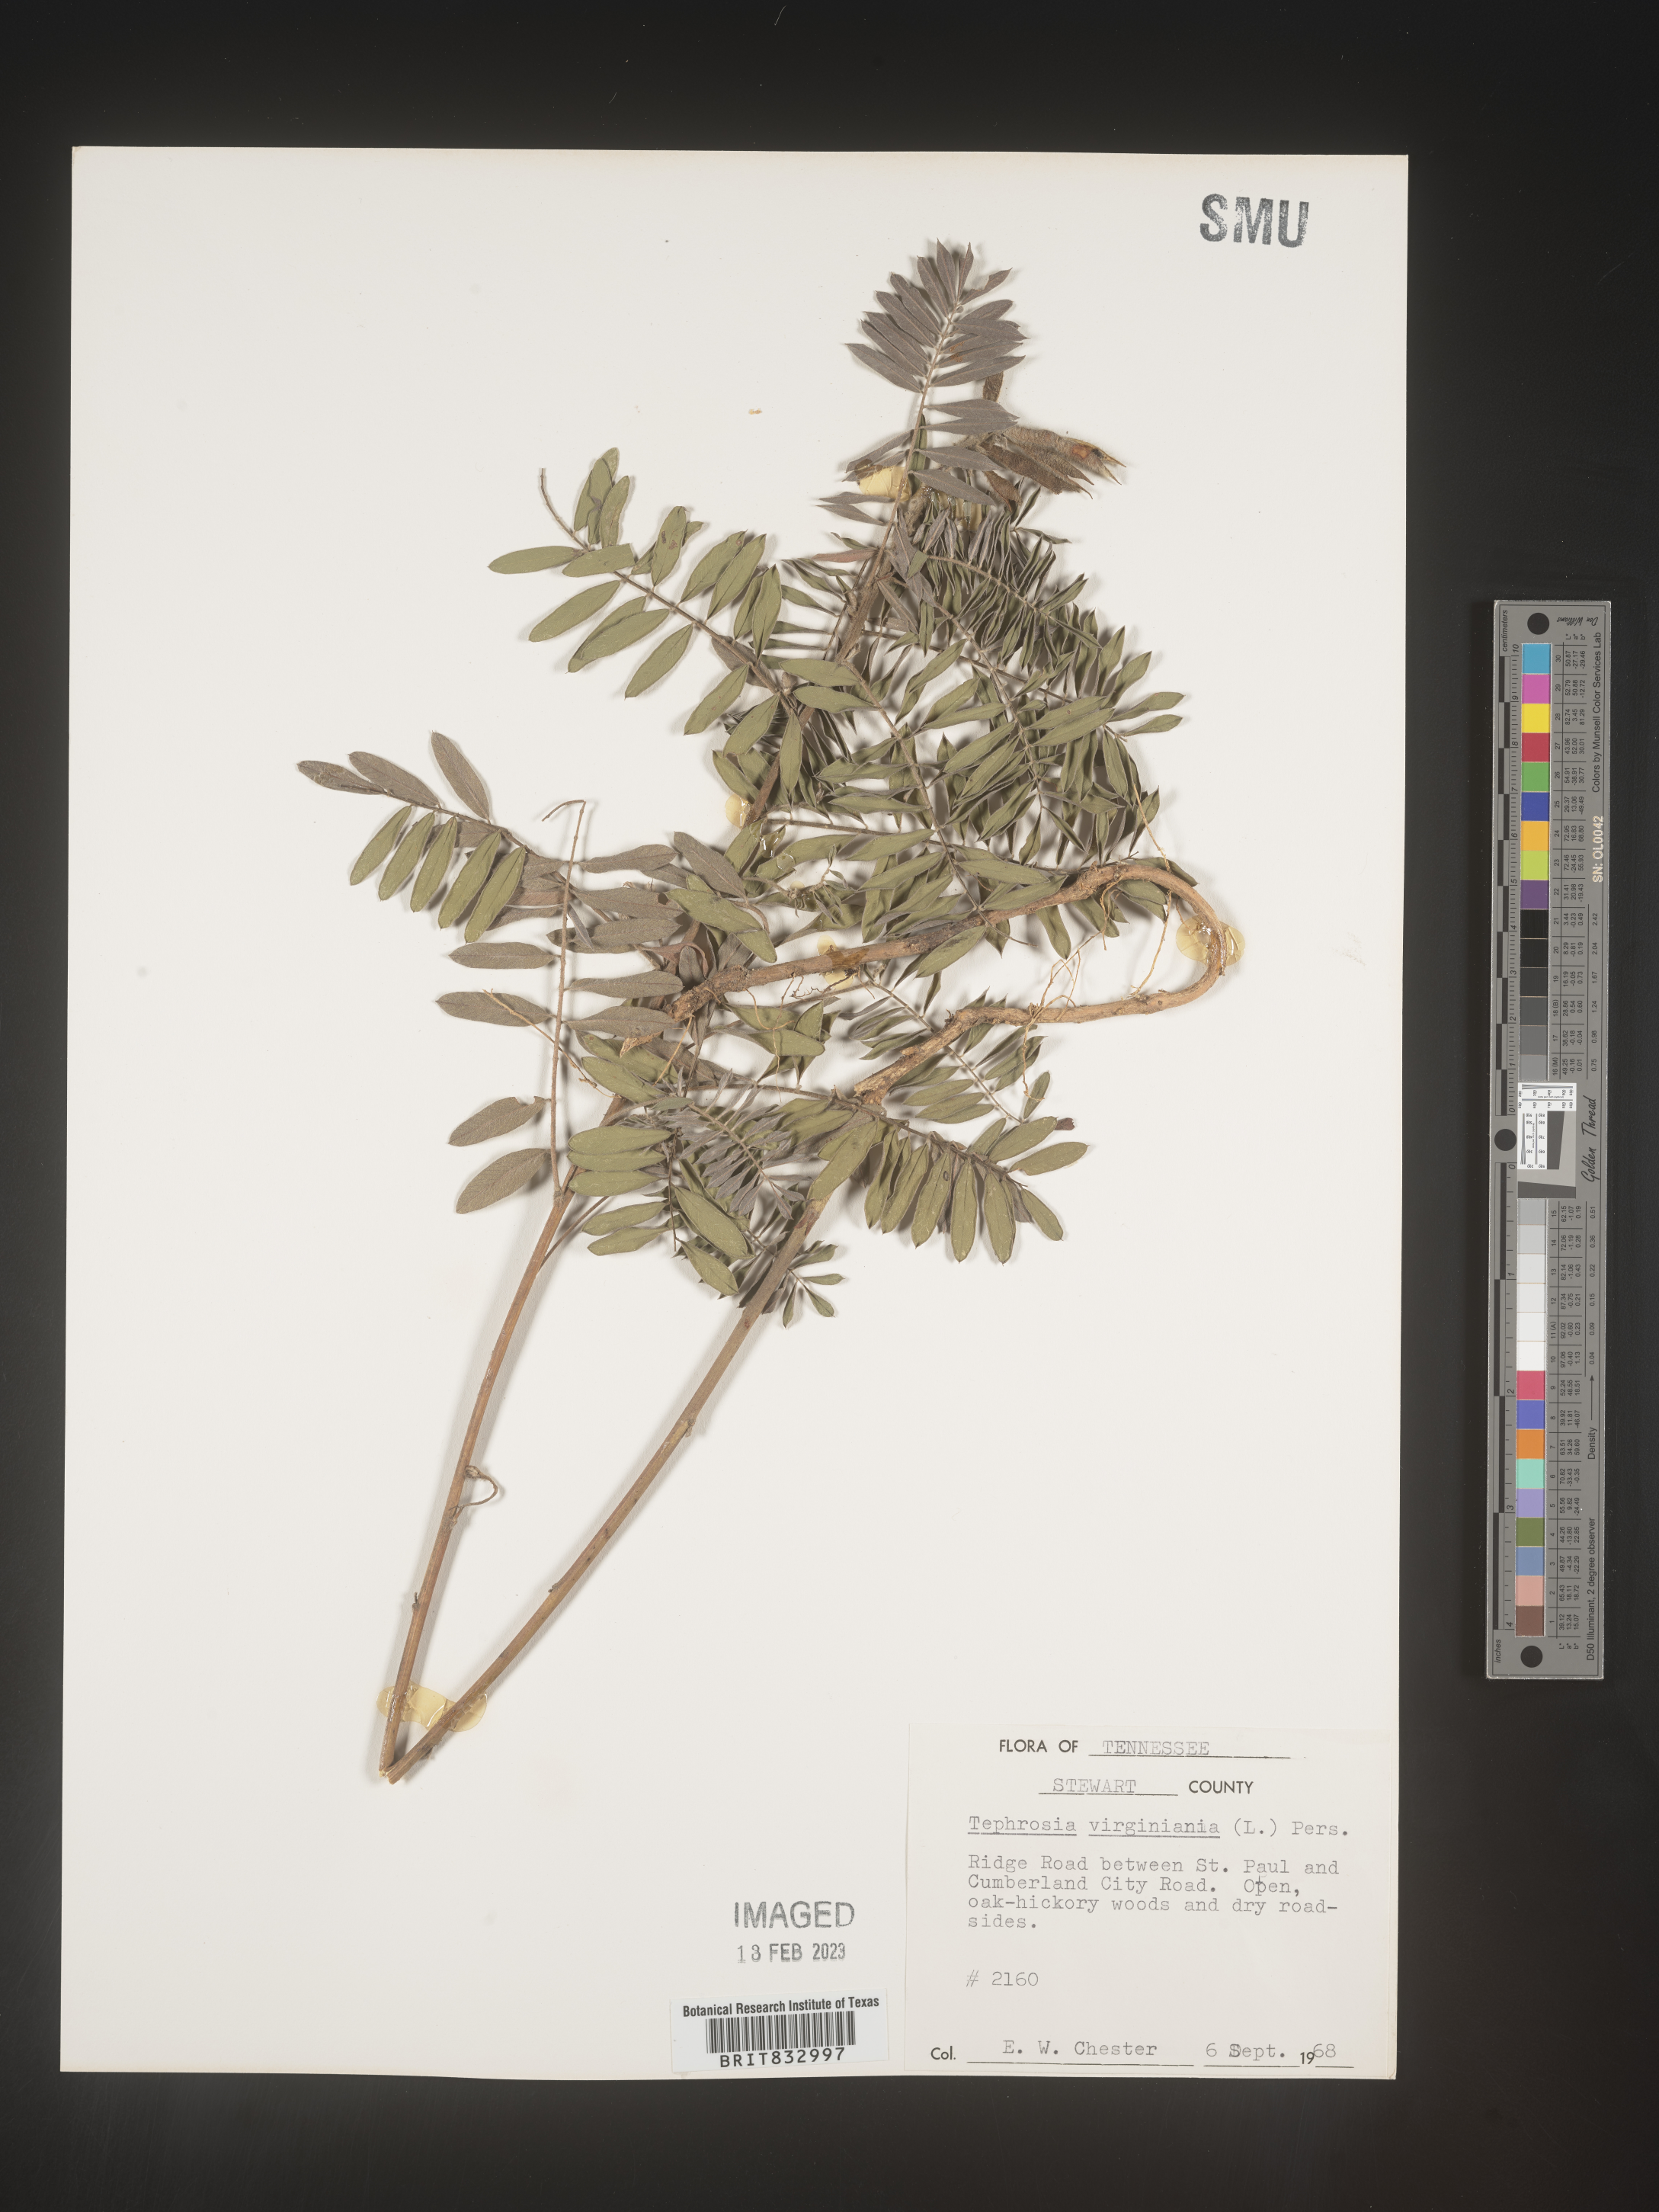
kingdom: Plantae
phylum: Tracheophyta
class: Magnoliopsida
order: Fabales
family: Fabaceae
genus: Tephrosia
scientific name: Tephrosia virginiana
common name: Rabbit-pea
